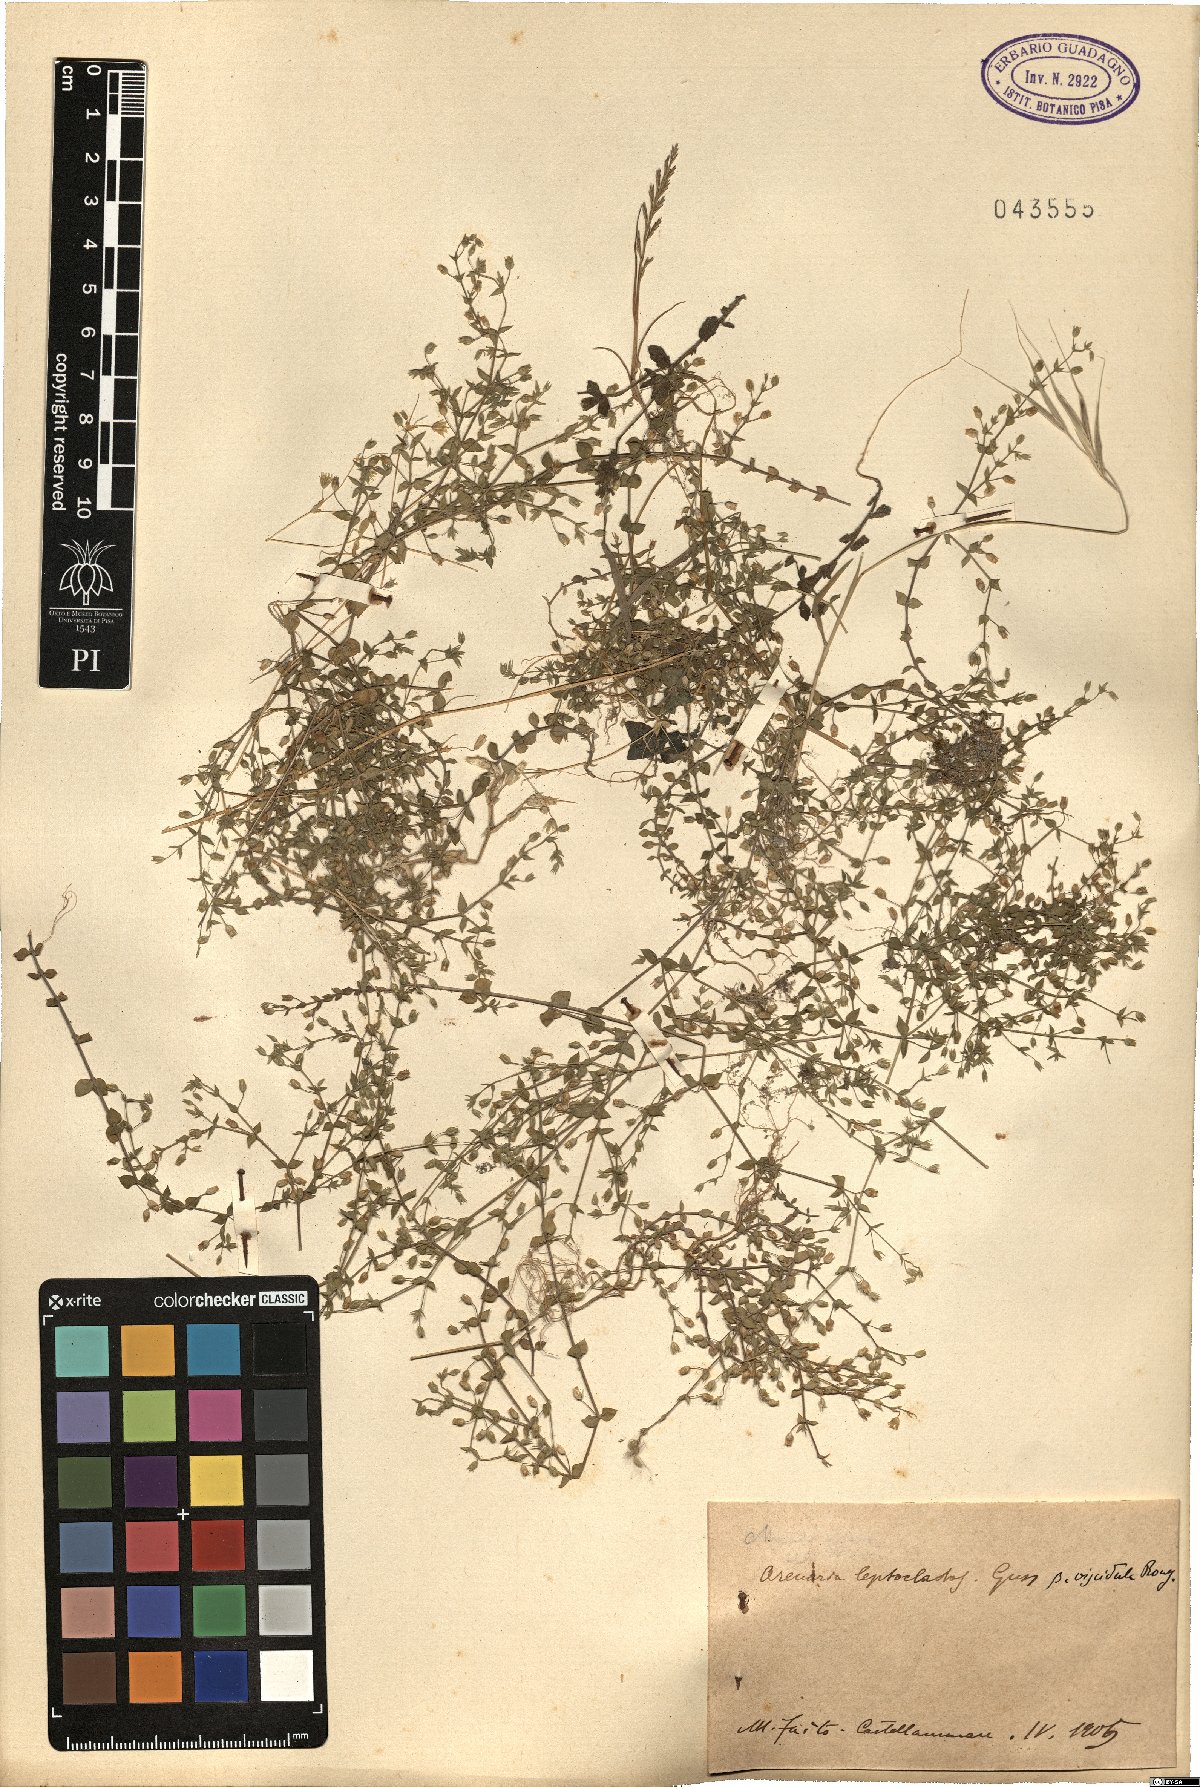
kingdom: Plantae
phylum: Tracheophyta
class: Magnoliopsida
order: Caryophyllales
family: Caryophyllaceae
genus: Arenaria
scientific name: Arenaria leptoclados
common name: Thyme-leaved sandwort
